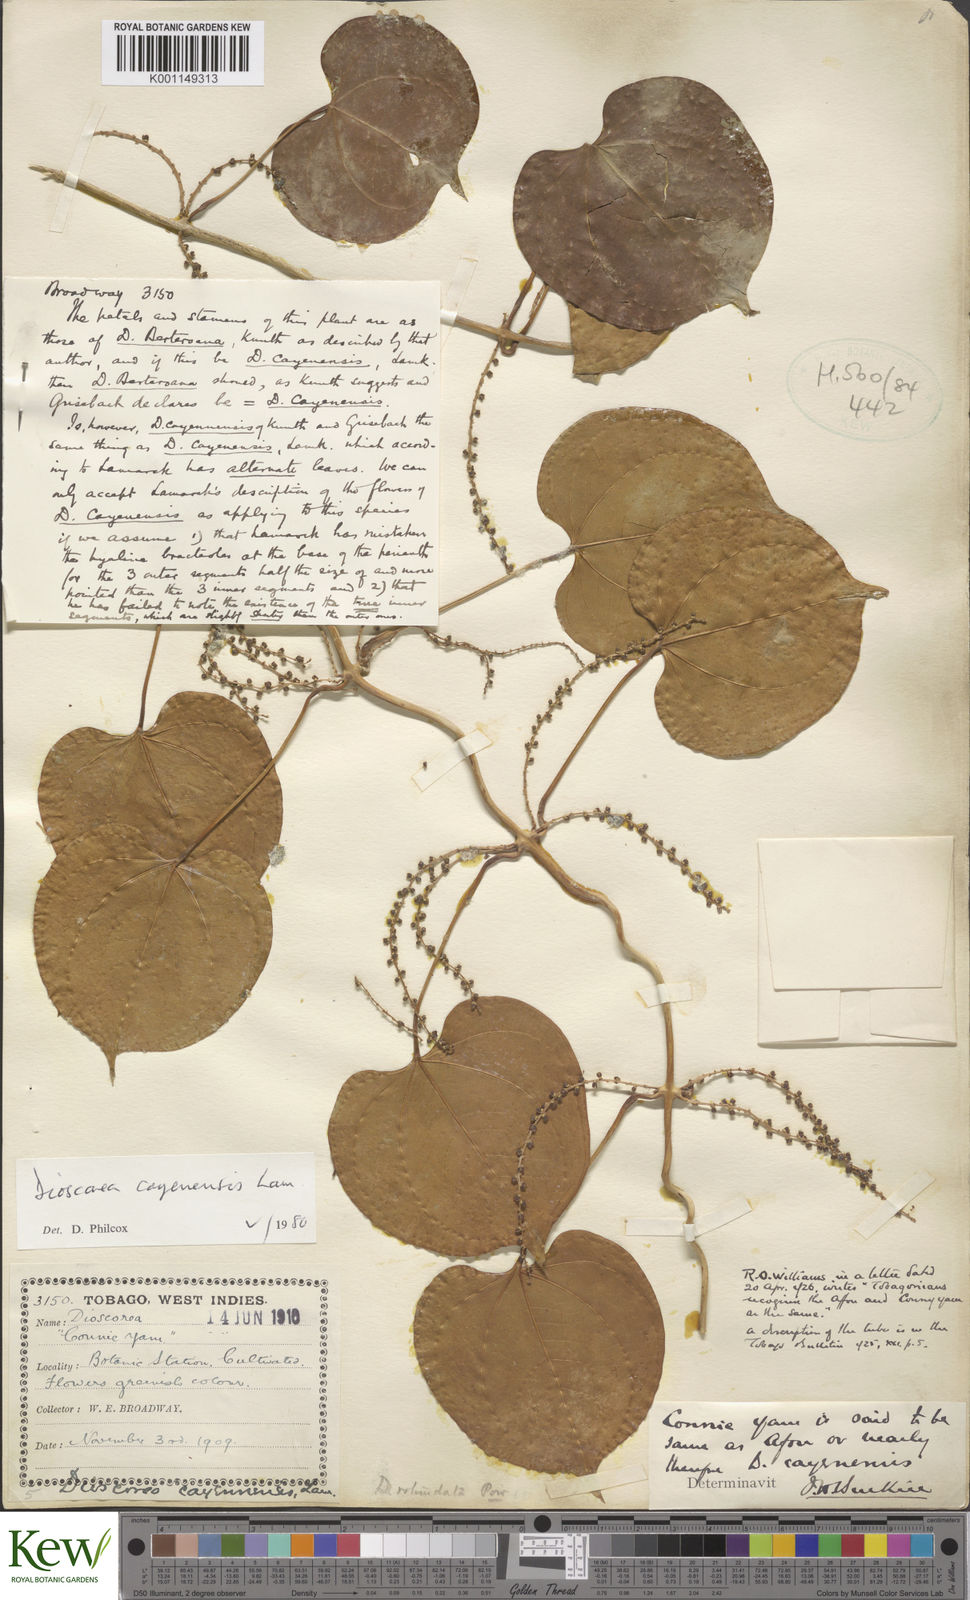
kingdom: Plantae
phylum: Tracheophyta
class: Liliopsida
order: Dioscoreales
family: Dioscoreaceae
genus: Dioscorea
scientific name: Dioscorea cayenensis
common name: Attoto yam
